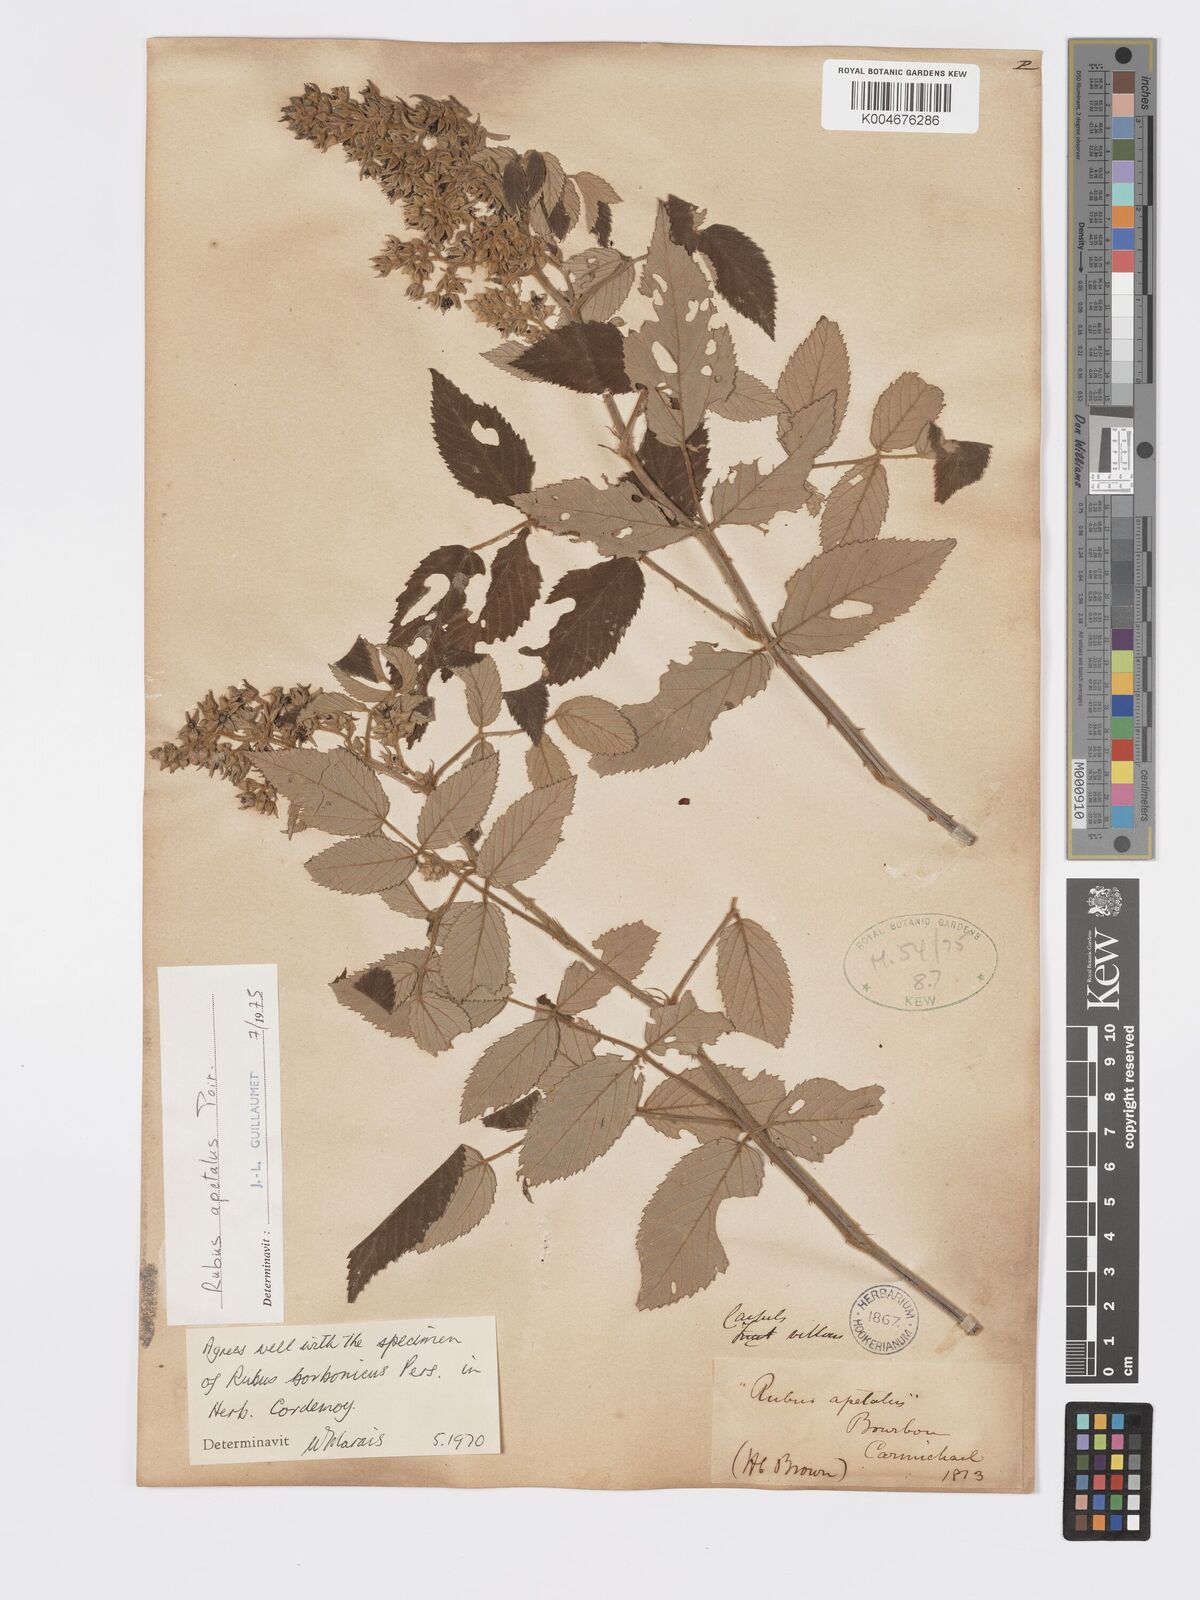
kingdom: Plantae
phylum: Tracheophyta
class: Magnoliopsida
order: Rosales
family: Rosaceae
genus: Rubus
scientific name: Rubus apetalus
